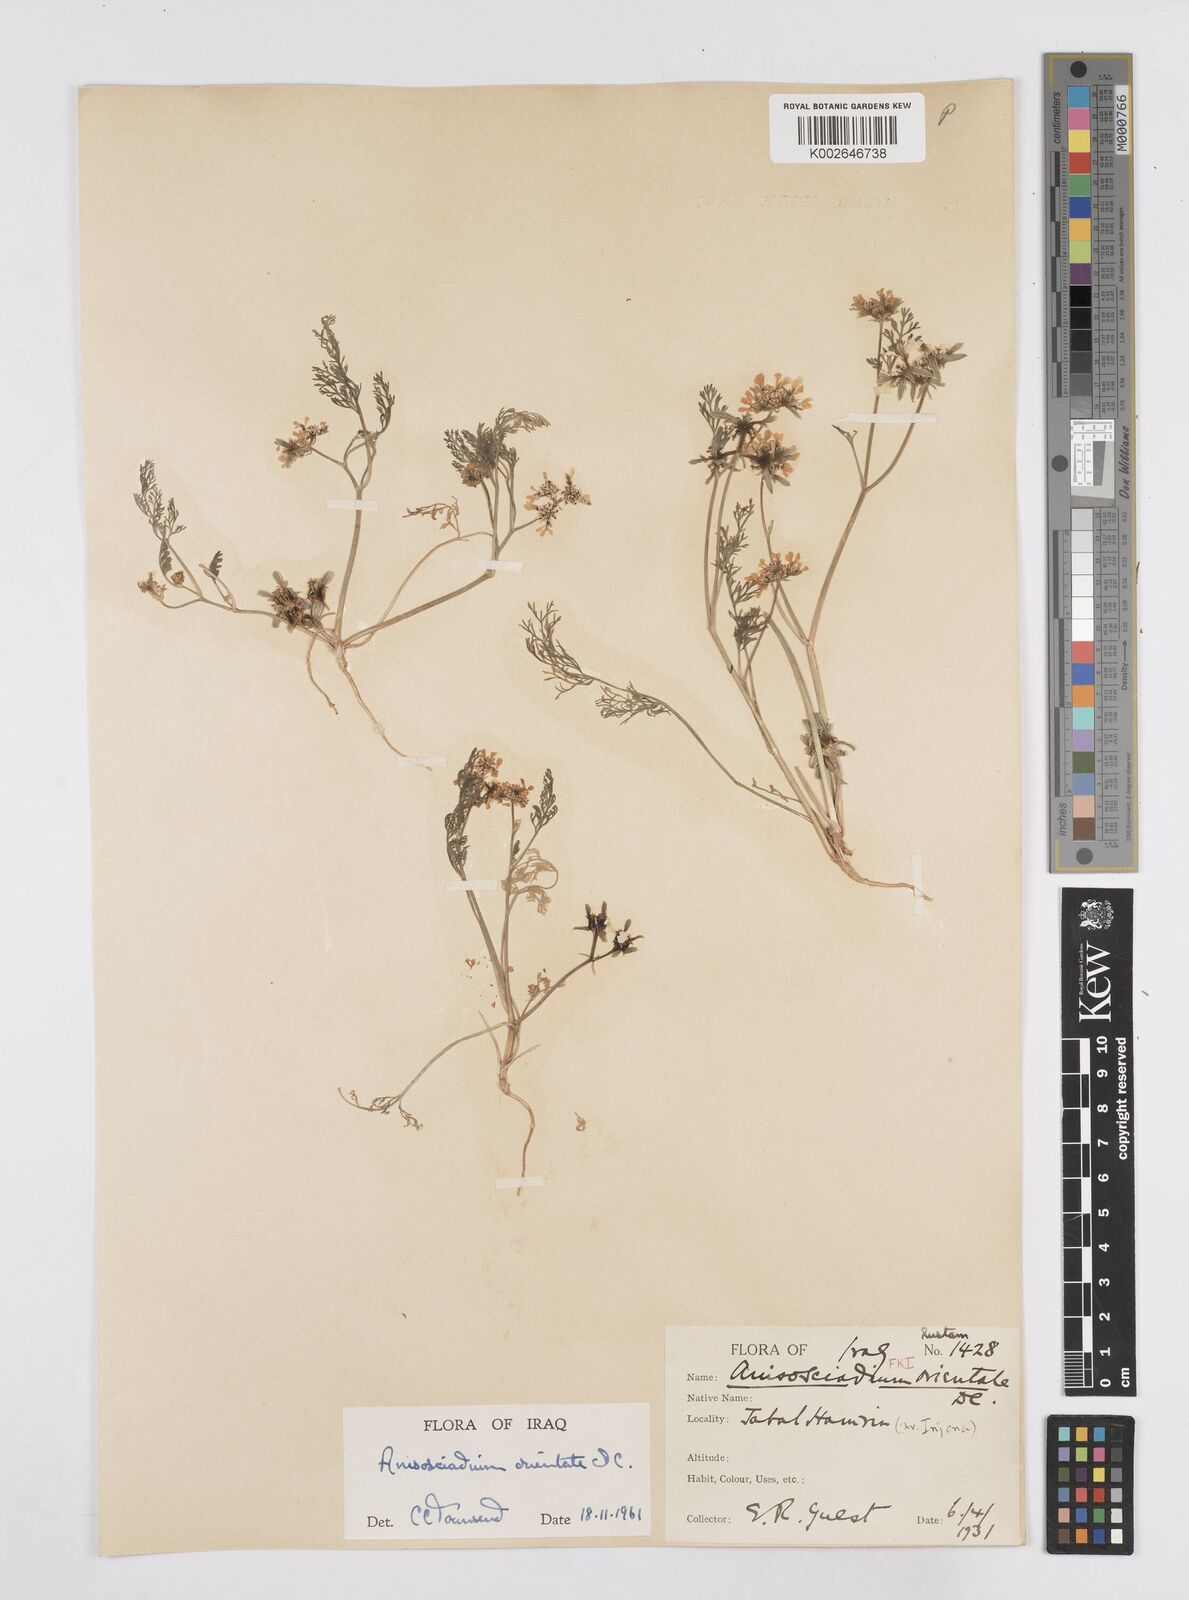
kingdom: Plantae
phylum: Tracheophyta
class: Magnoliopsida
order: Apiales
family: Apiaceae
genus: Anisosciadium
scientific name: Anisosciadium orientale
